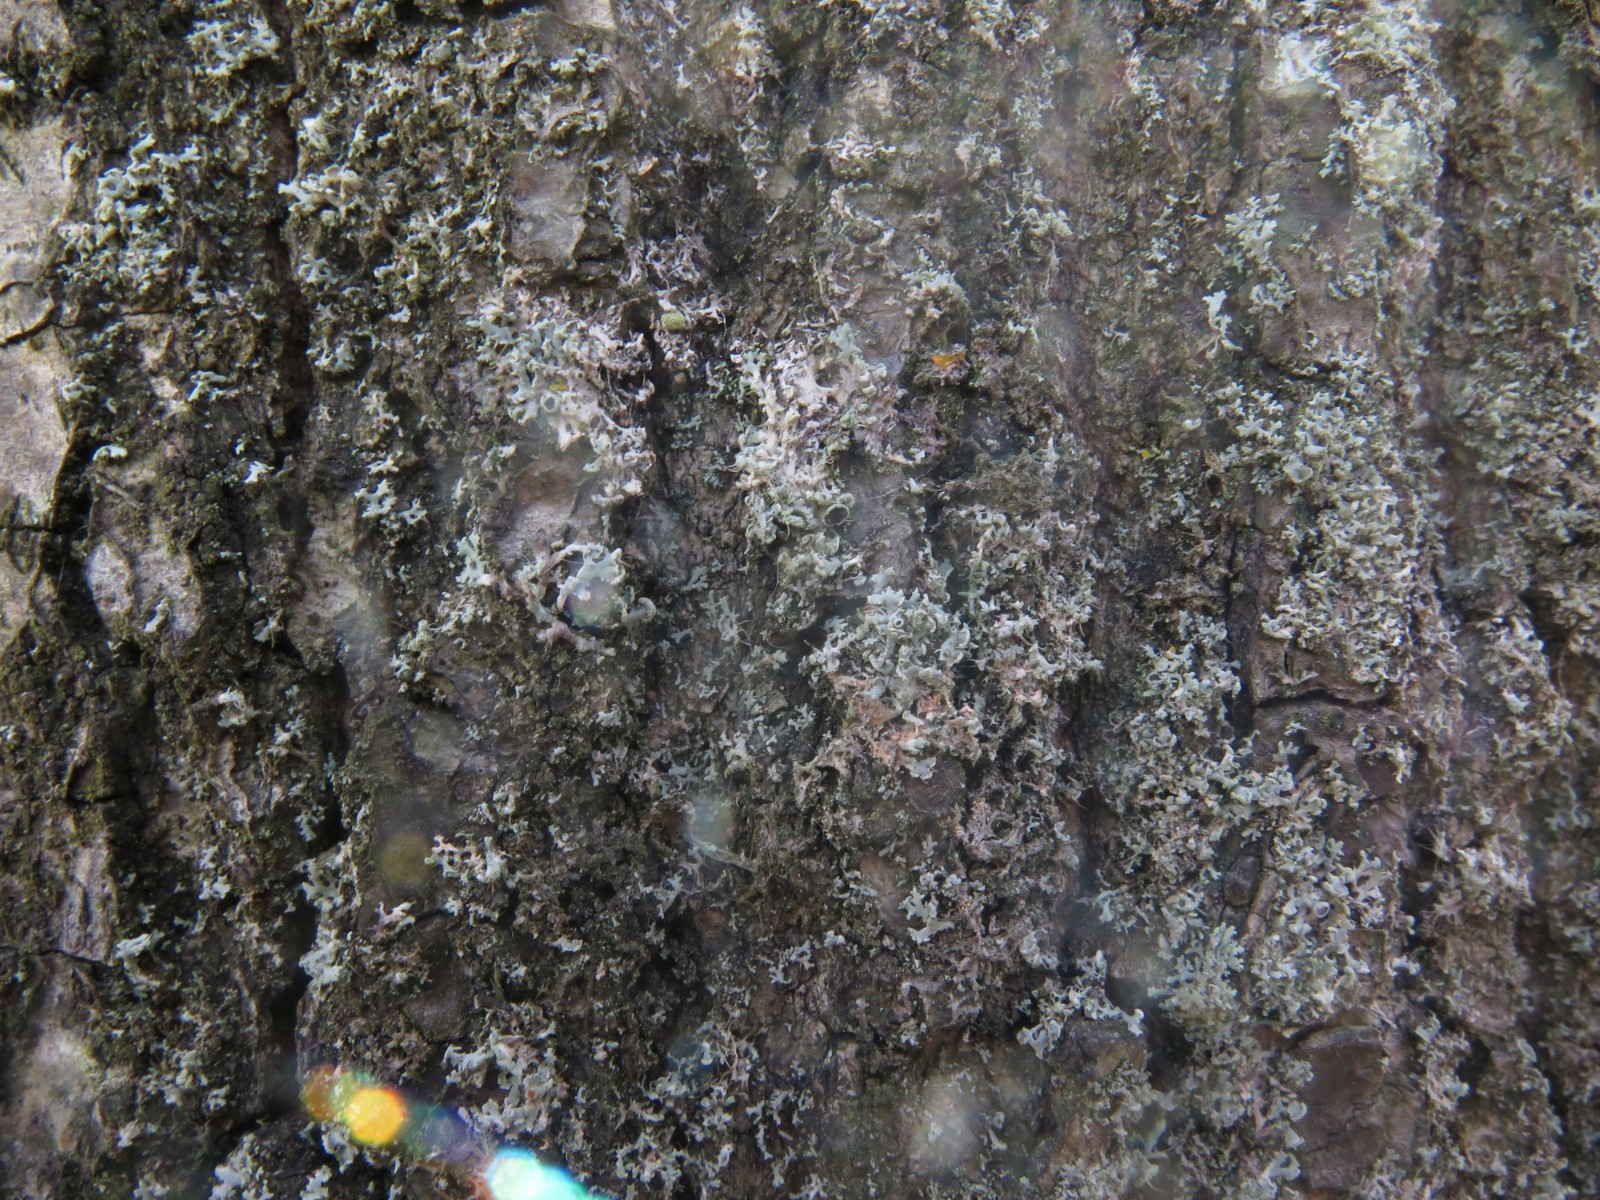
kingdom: Fungi
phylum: Ascomycota
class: Lecanoromycetes
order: Caliciales
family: Physciaceae
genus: Physcia
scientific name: Physcia tenella
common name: spæd rosetlav
